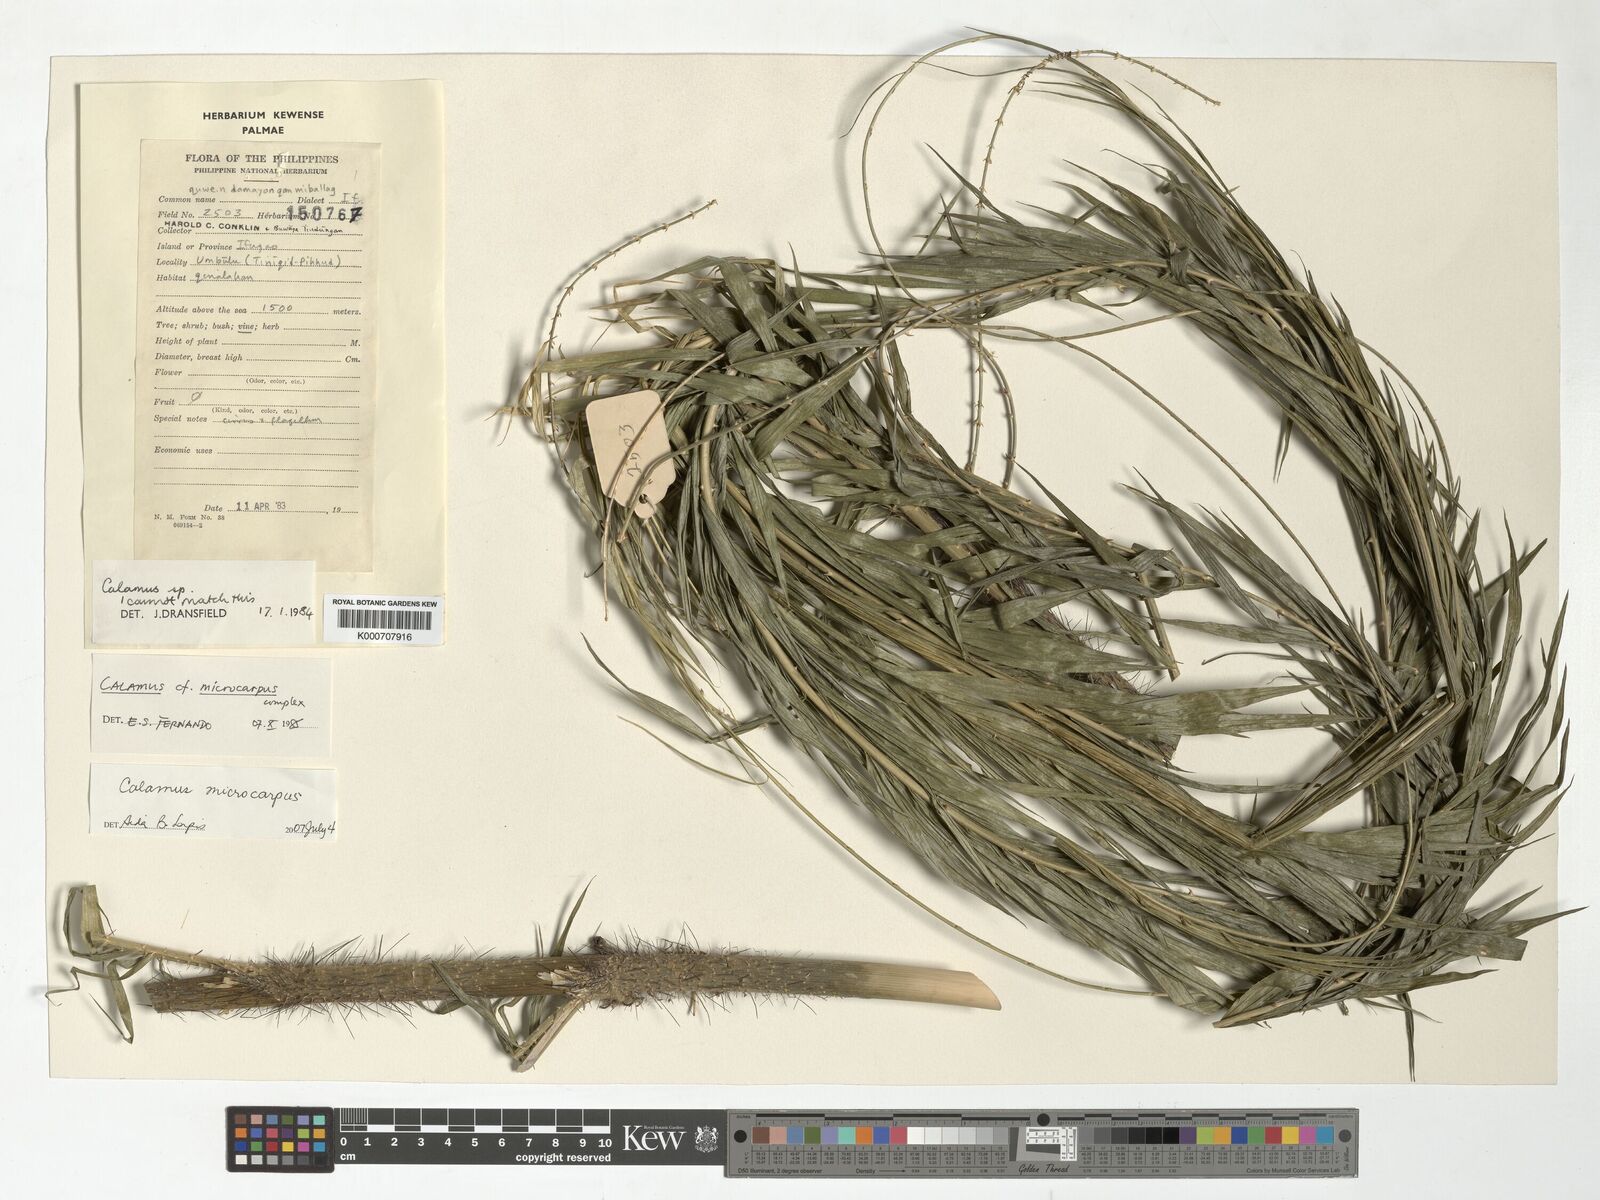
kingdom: Plantae
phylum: Tracheophyta
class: Liliopsida
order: Arecales
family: Arecaceae
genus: Calamus
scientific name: Calamus siphonospathus
